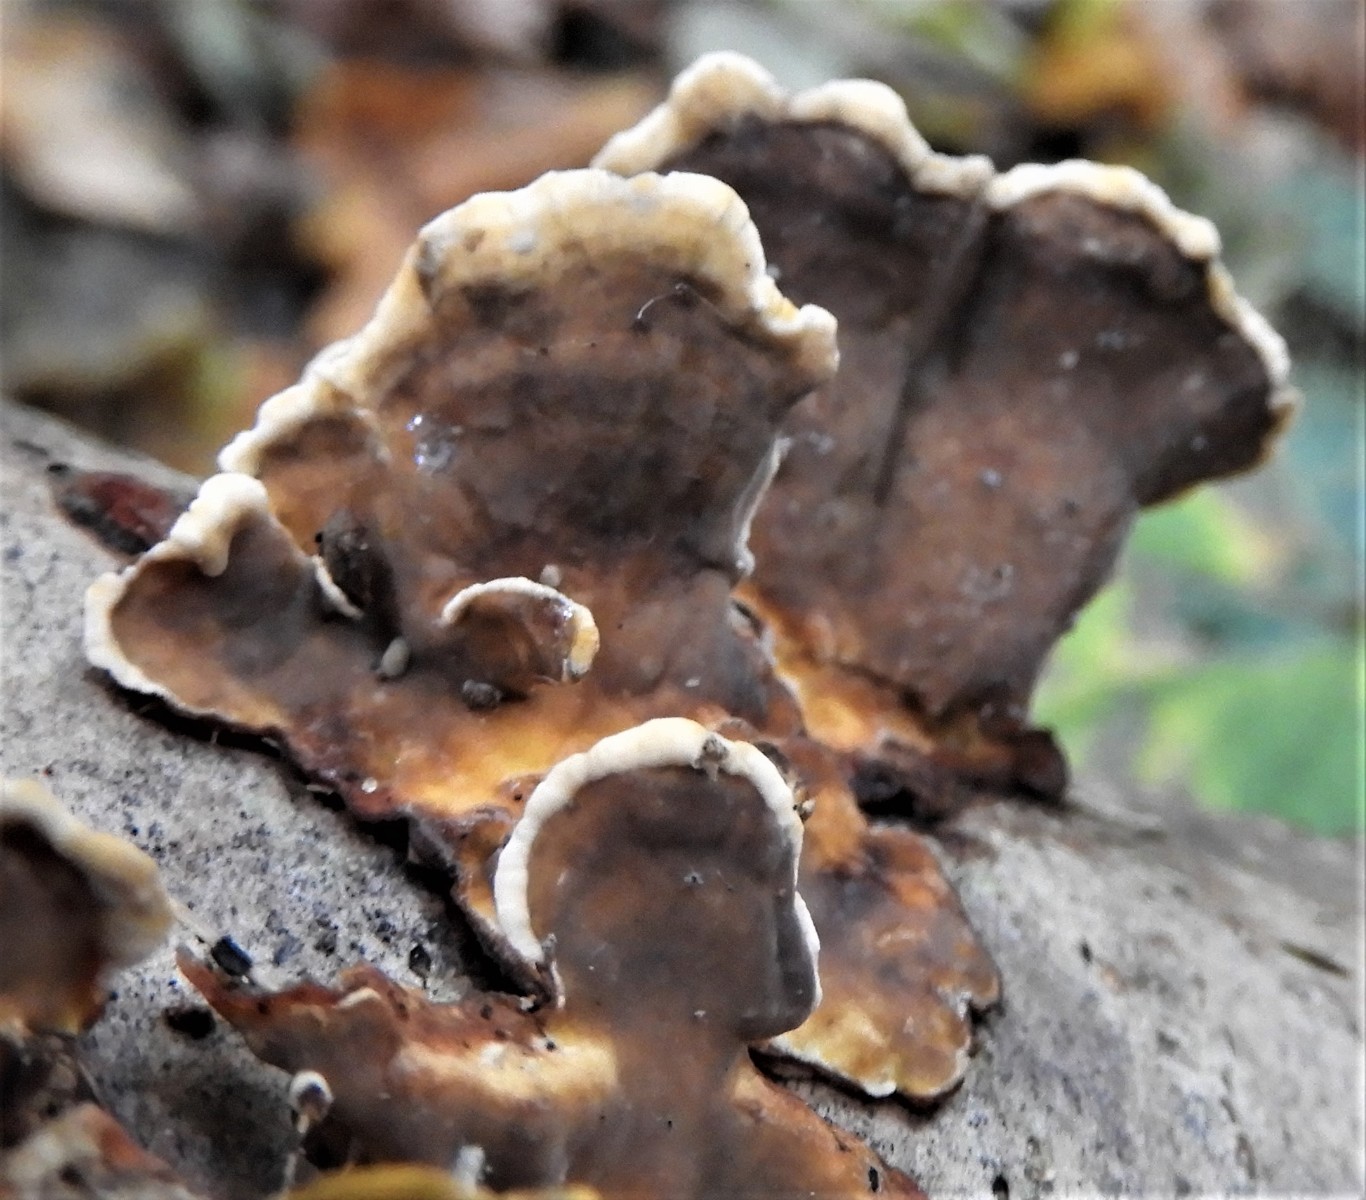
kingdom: Fungi
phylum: Basidiomycota
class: Agaricomycetes
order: Russulales
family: Stereaceae
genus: Stereum
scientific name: Stereum subtomentosum
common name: smuk lædersvamp
